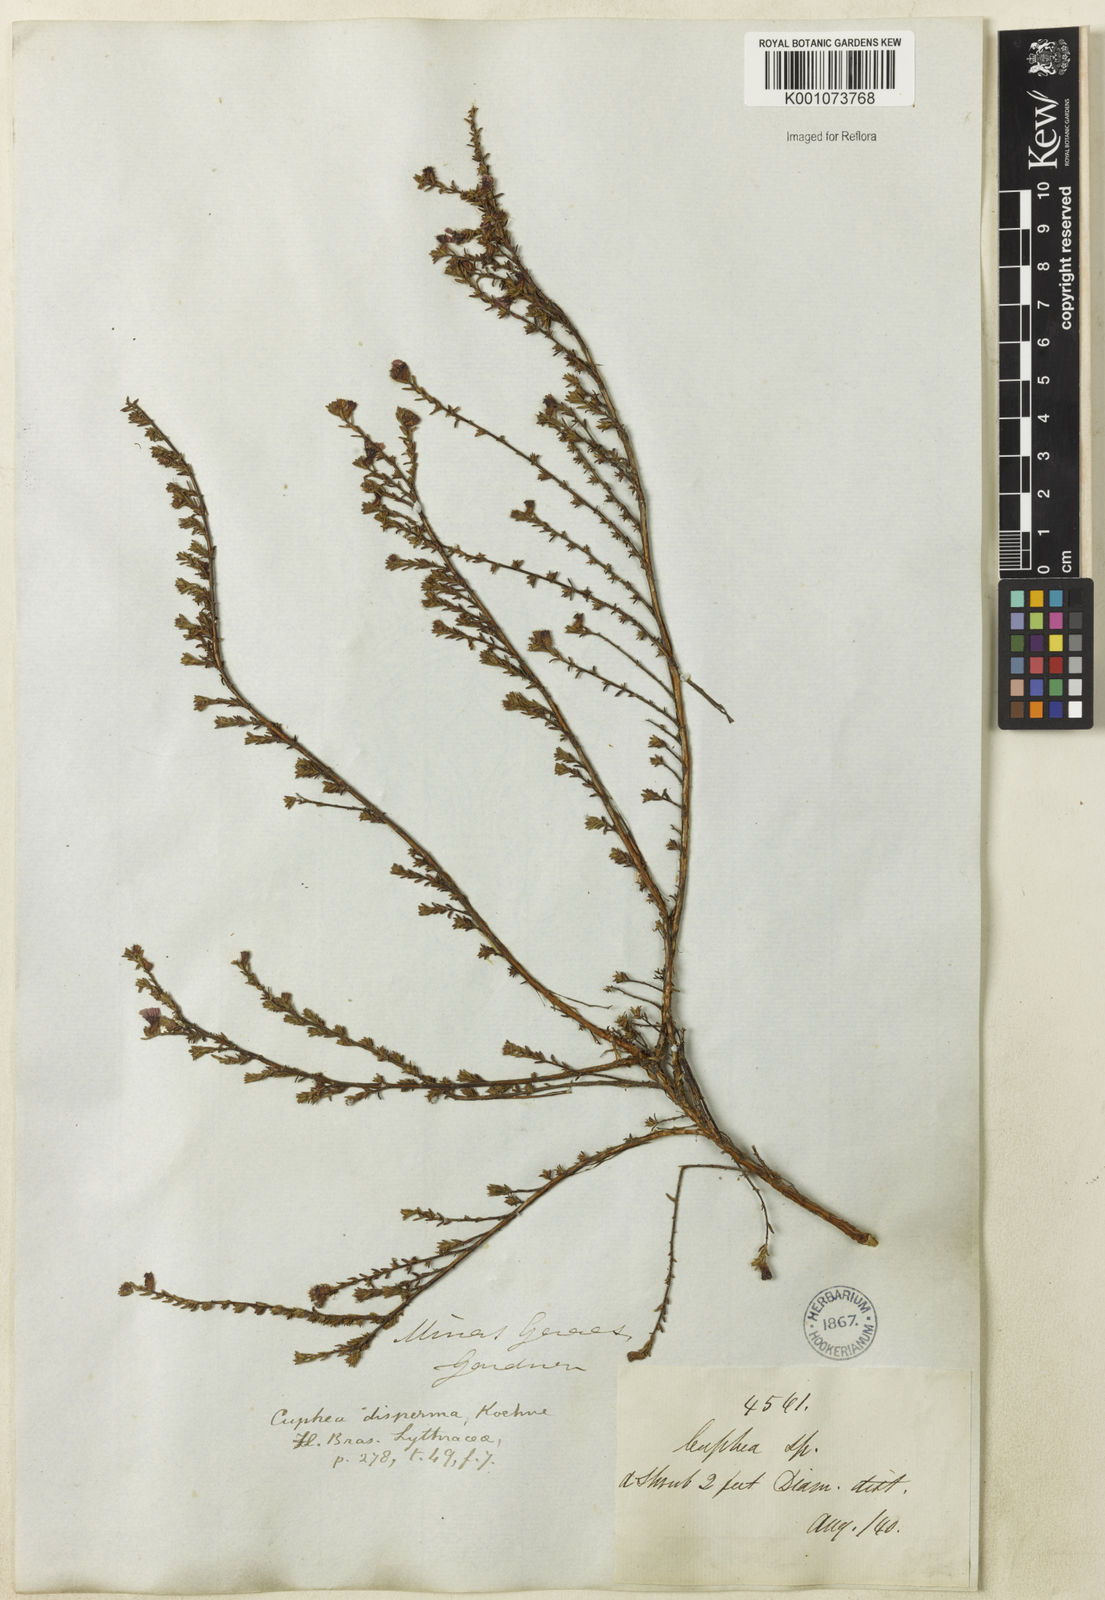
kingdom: Plantae
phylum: Tracheophyta
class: Magnoliopsida
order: Myrtales
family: Lythraceae
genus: Cuphea
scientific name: Cuphea disperma
